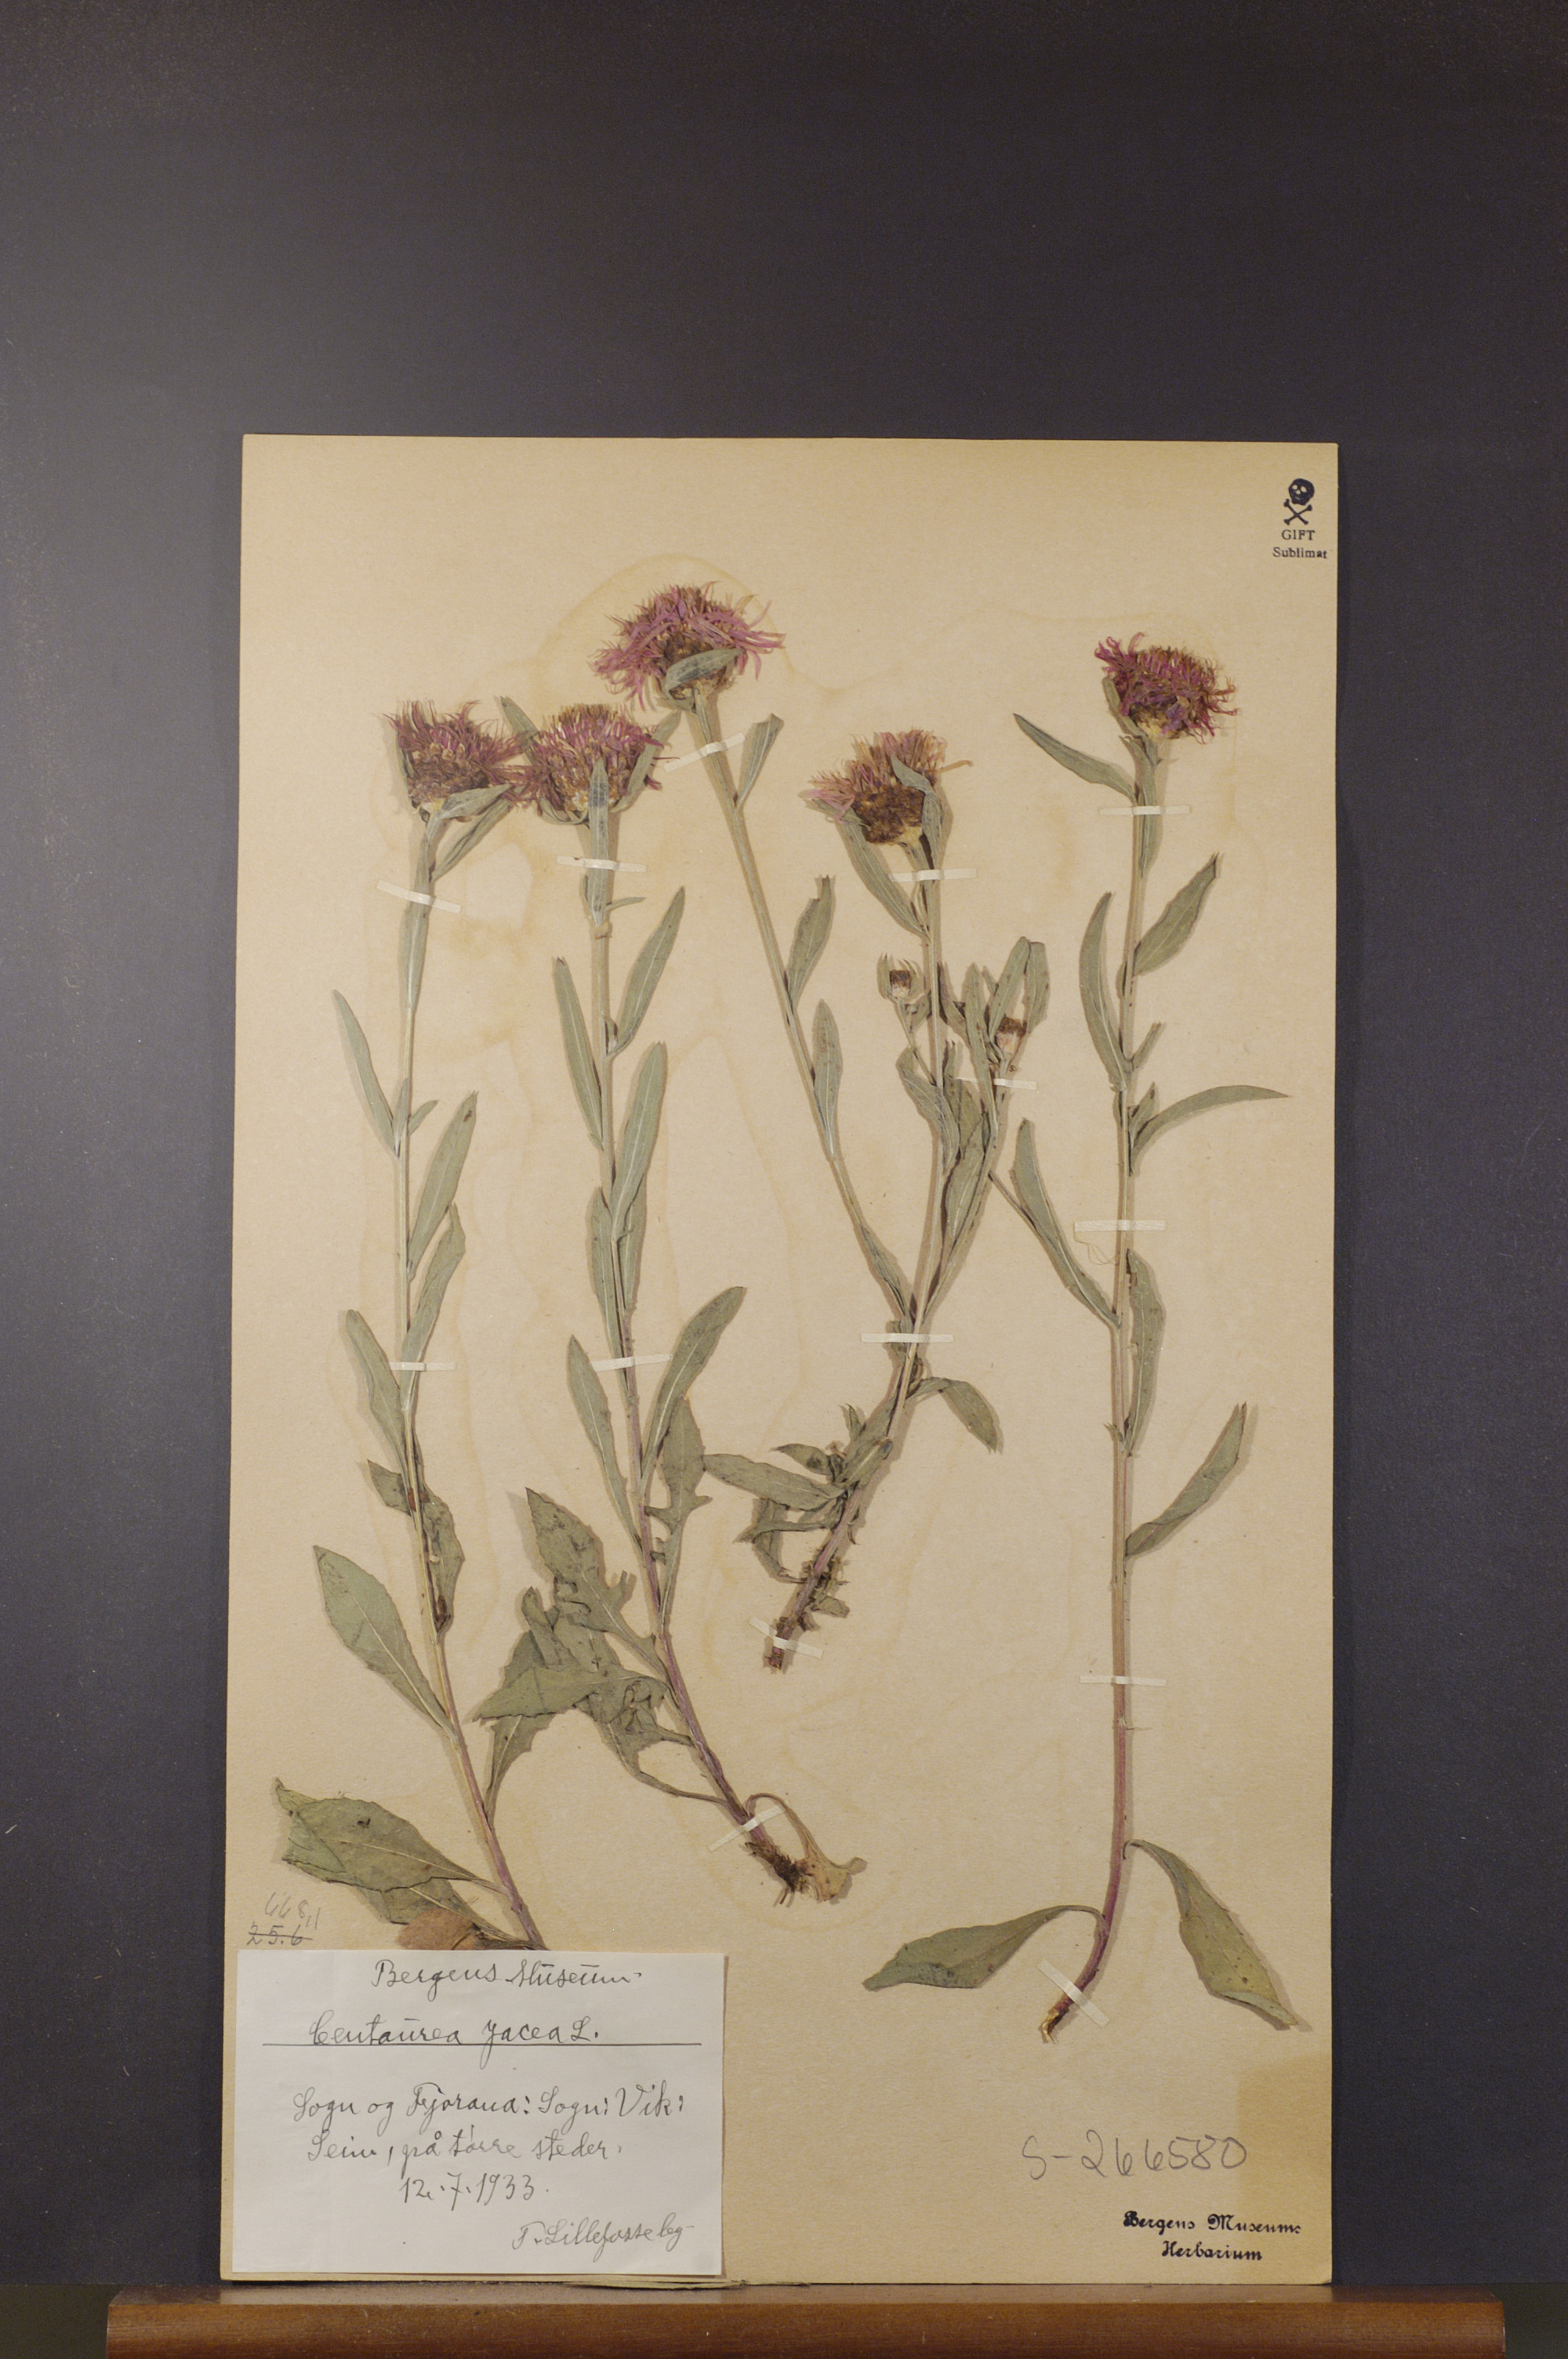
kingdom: Plantae
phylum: Tracheophyta
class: Magnoliopsida
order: Asterales
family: Asteraceae
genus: Centaurea
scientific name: Centaurea jacea
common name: Brown knapweed
